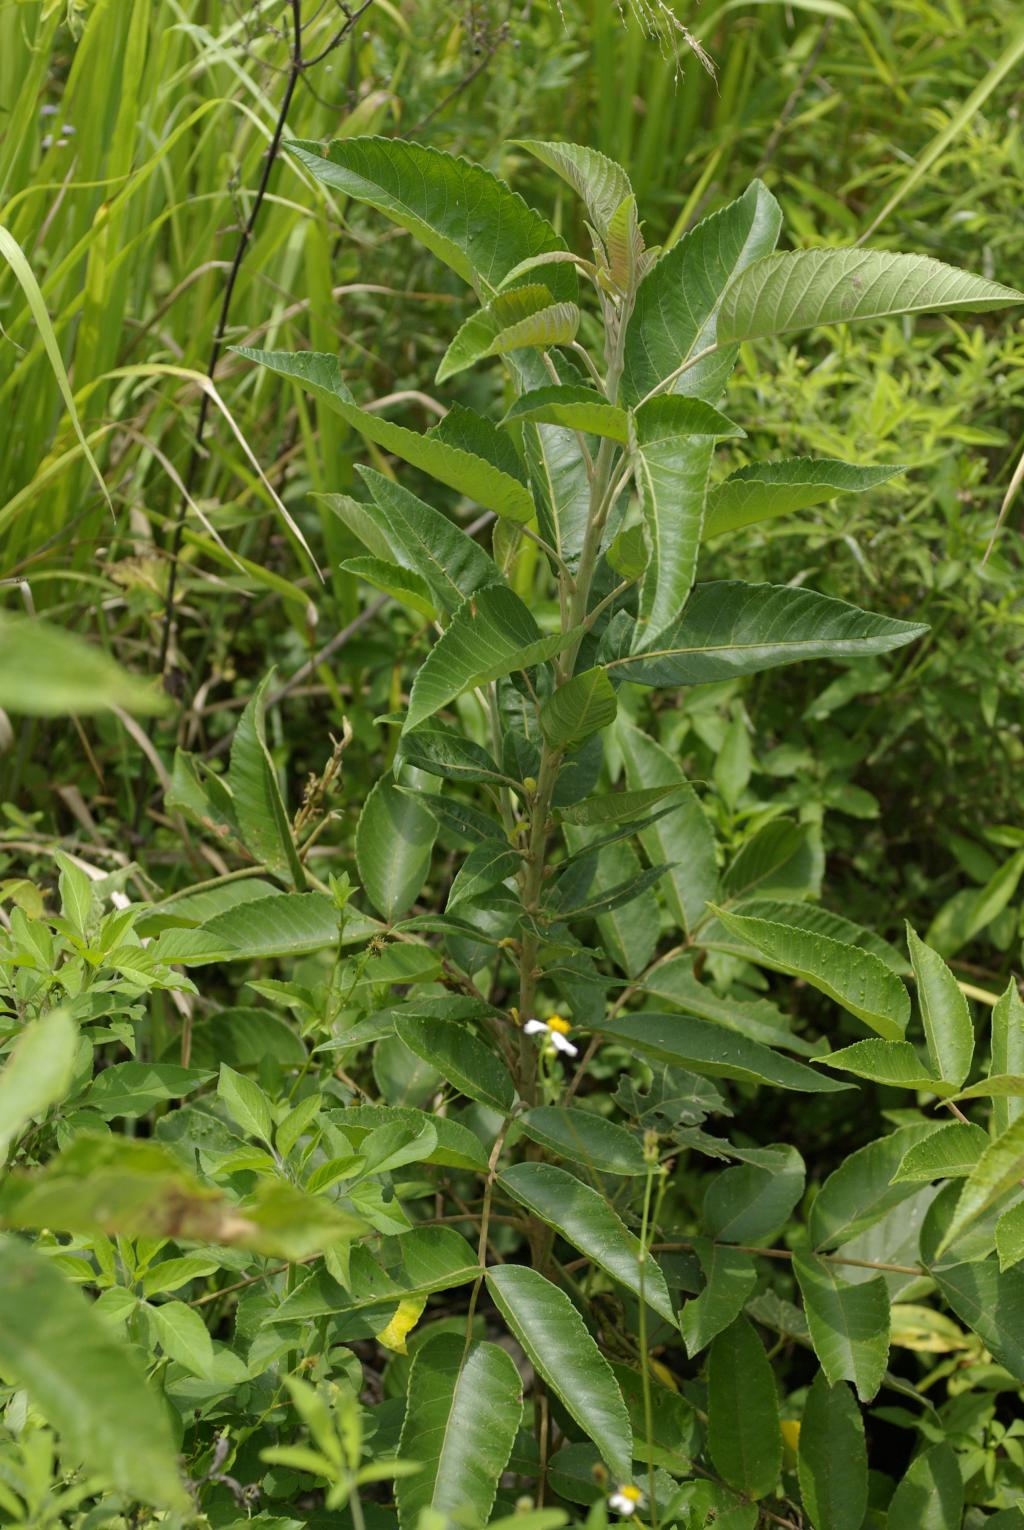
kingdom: Plantae
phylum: Tracheophyta
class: Magnoliopsida
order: Sapindales
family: Anacardiaceae
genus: Rhus
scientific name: Rhus chinensis
